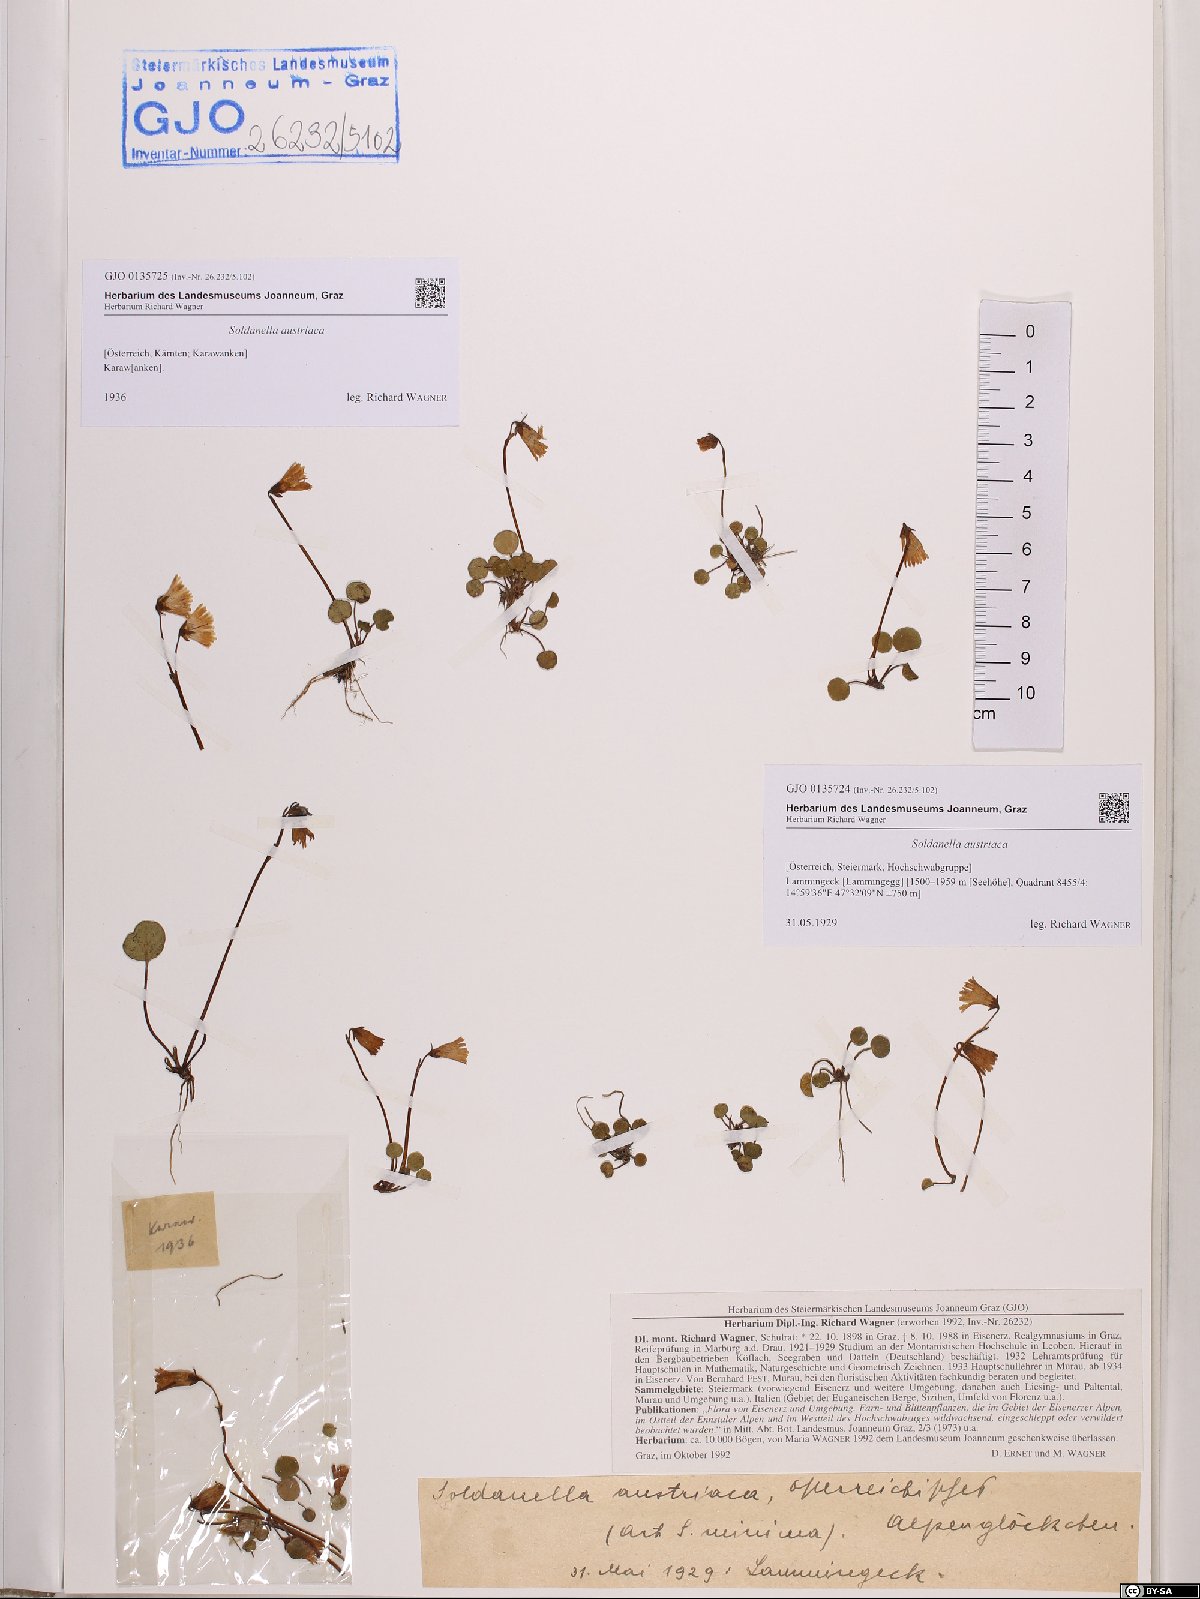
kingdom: Plantae
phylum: Tracheophyta
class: Magnoliopsida
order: Ericales
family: Primulaceae
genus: Soldanella
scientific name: Soldanella austriaca
